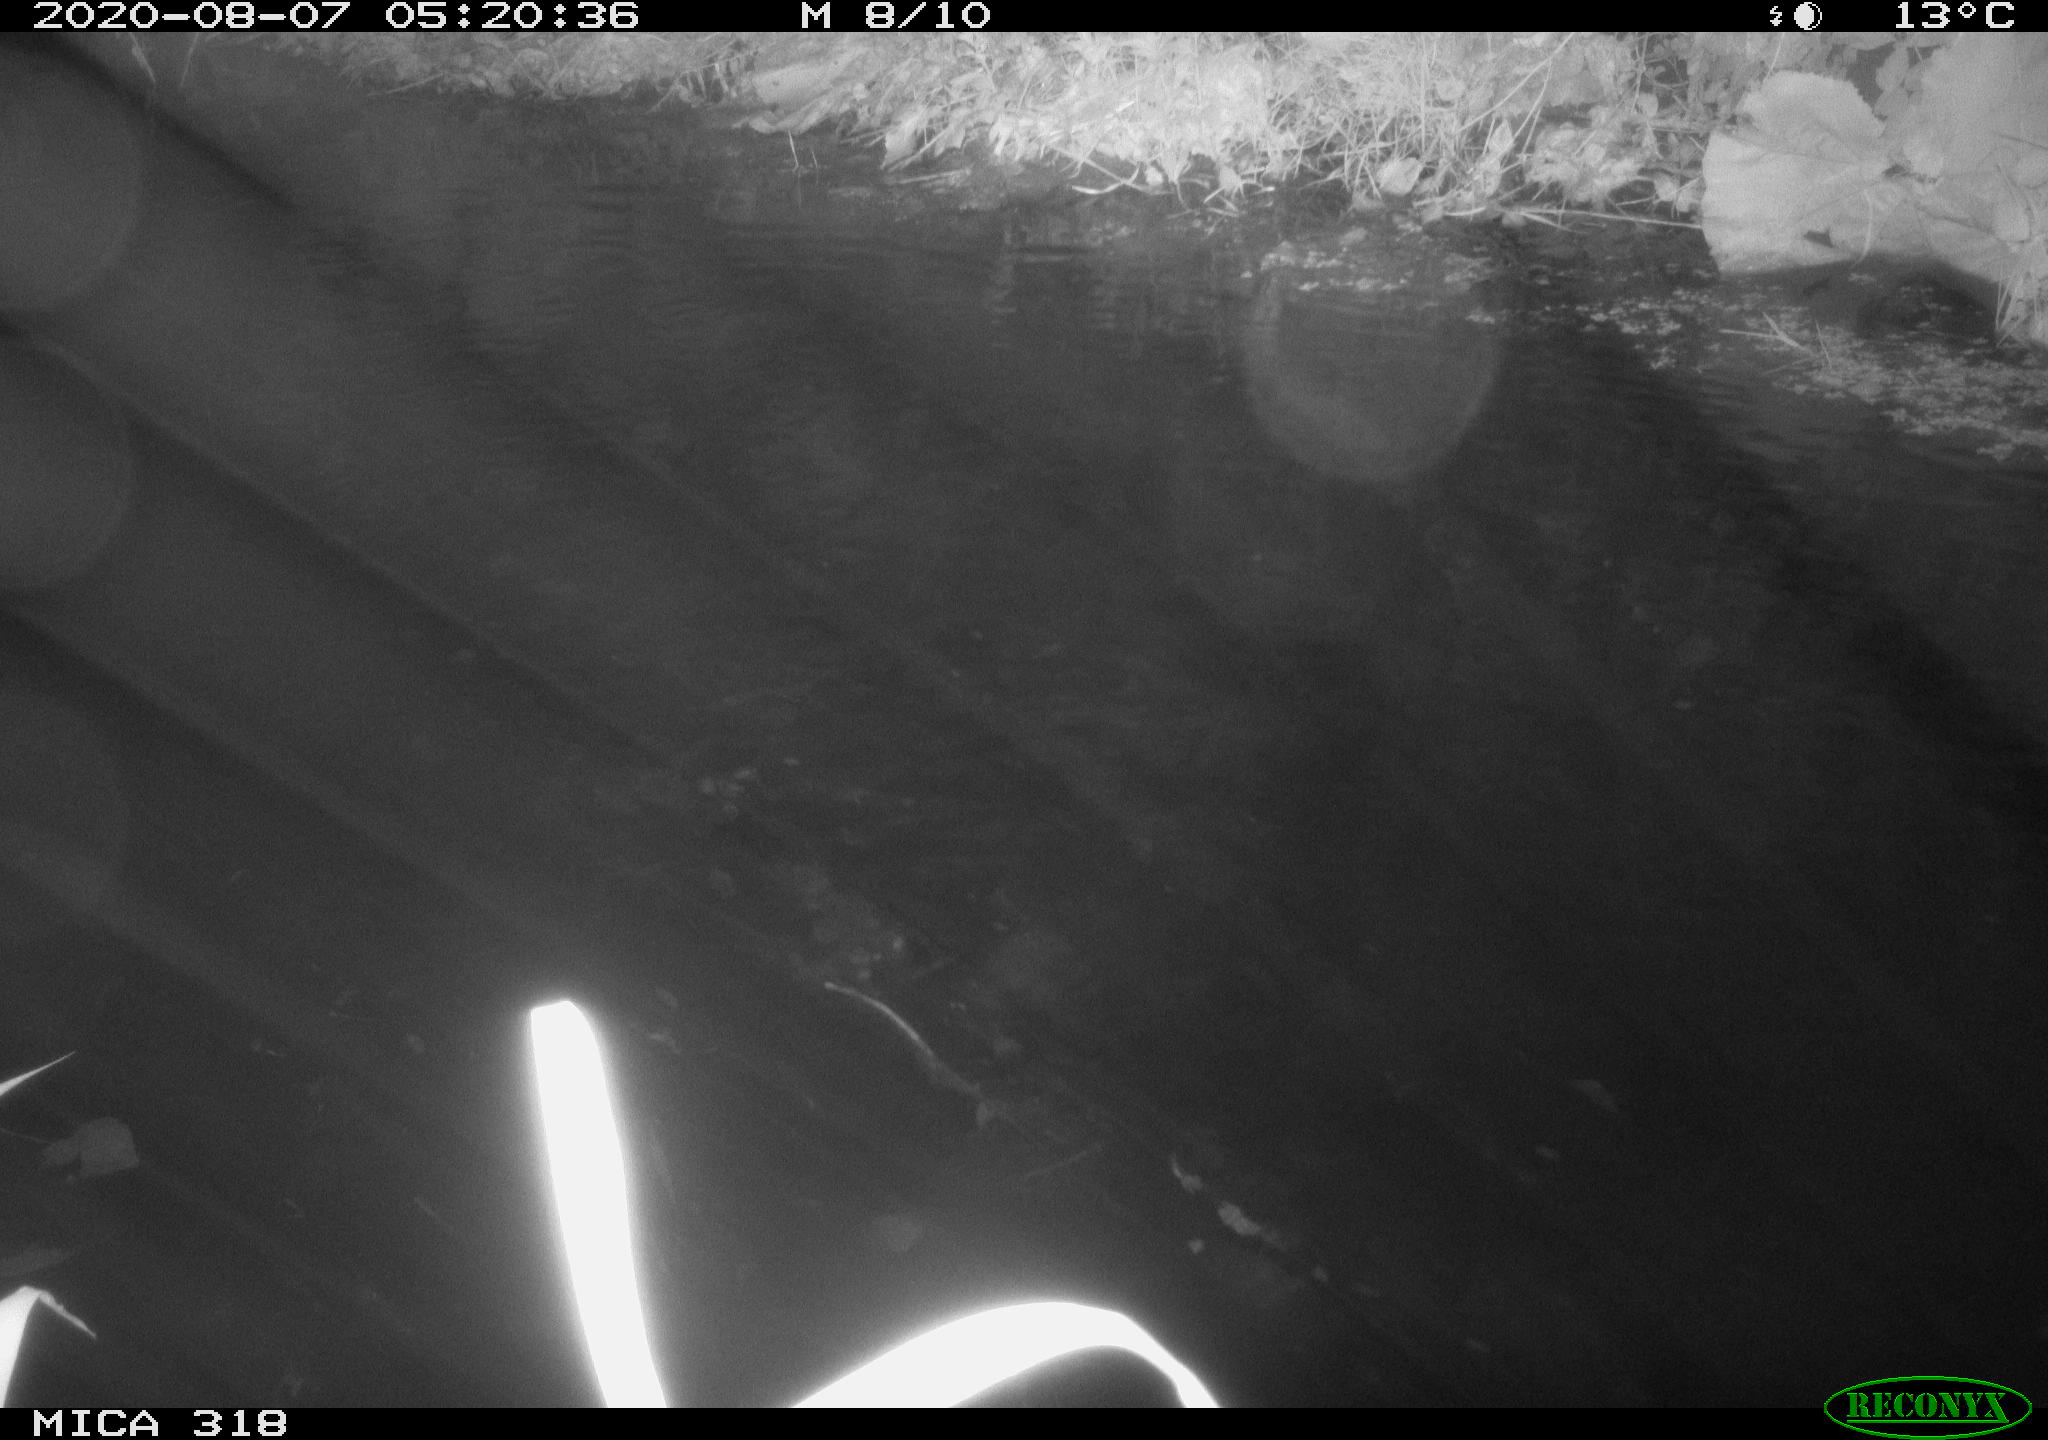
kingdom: Animalia
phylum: Chordata
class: Aves
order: Anseriformes
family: Anatidae
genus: Anas
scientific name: Anas platyrhynchos
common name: Mallard
